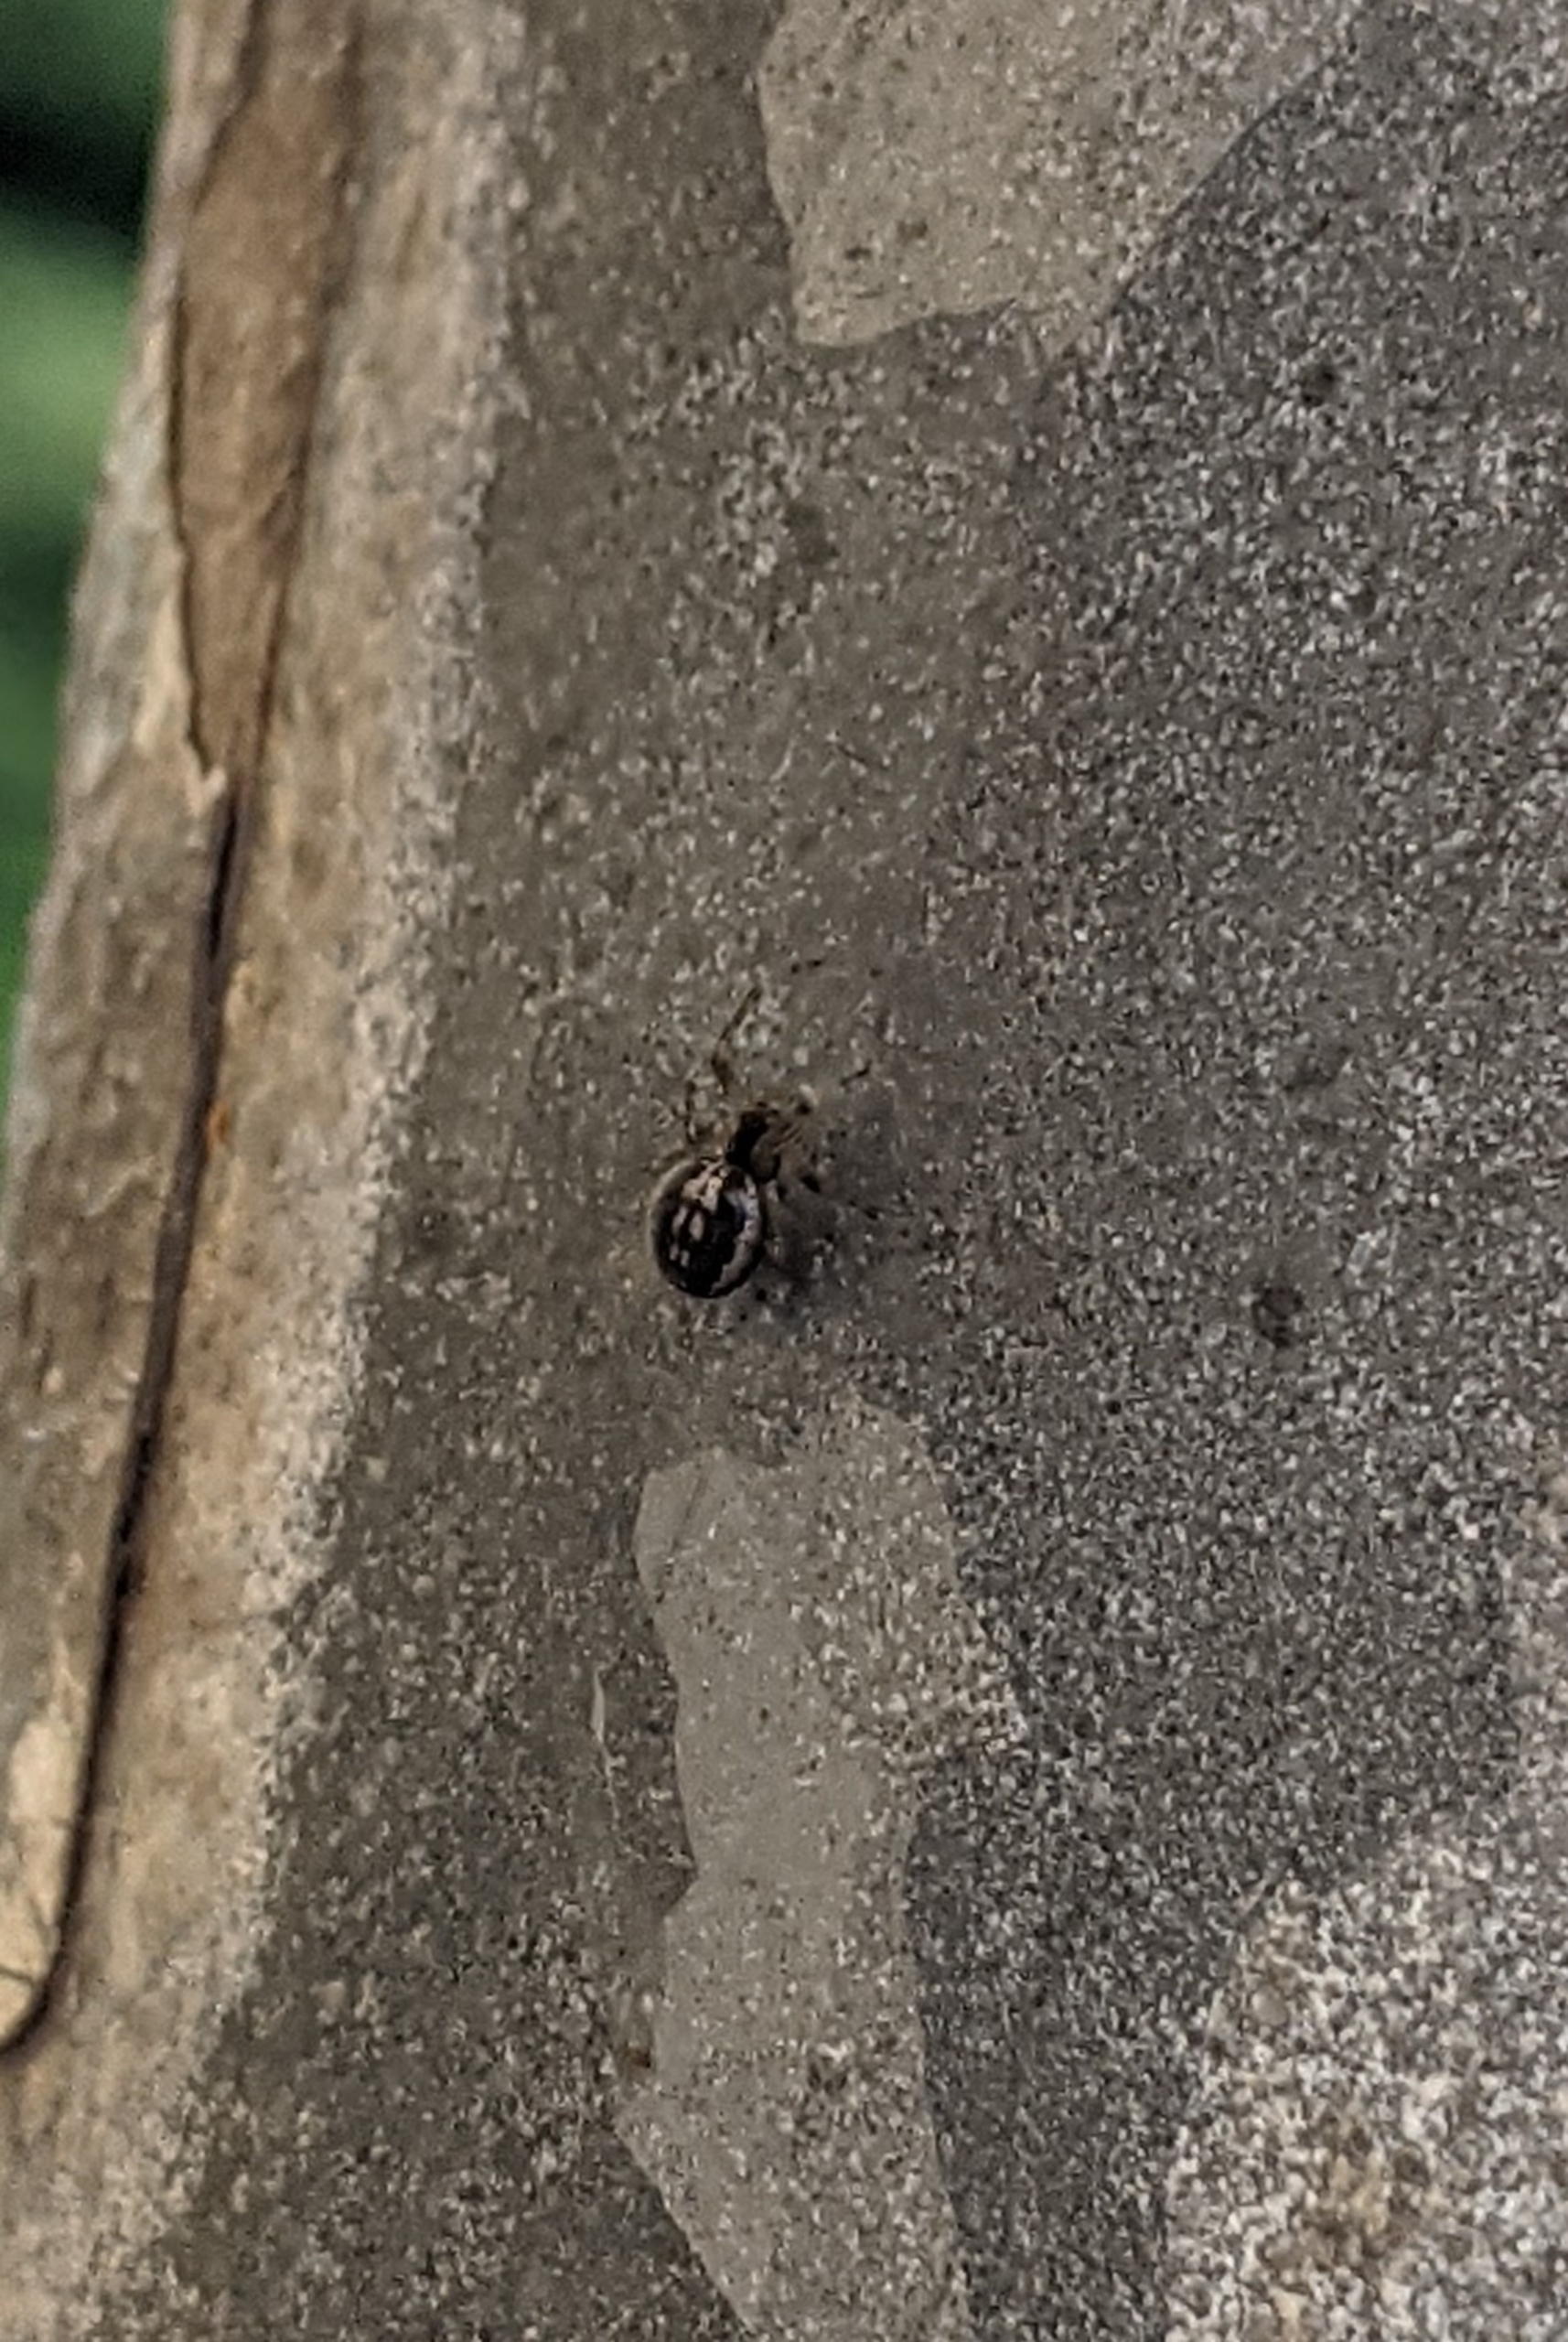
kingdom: Animalia
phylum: Arthropoda
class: Arachnida
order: Araneae
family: Araneidae
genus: Zygiella
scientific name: Zygiella x-notata
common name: Grå sektoredderkop
